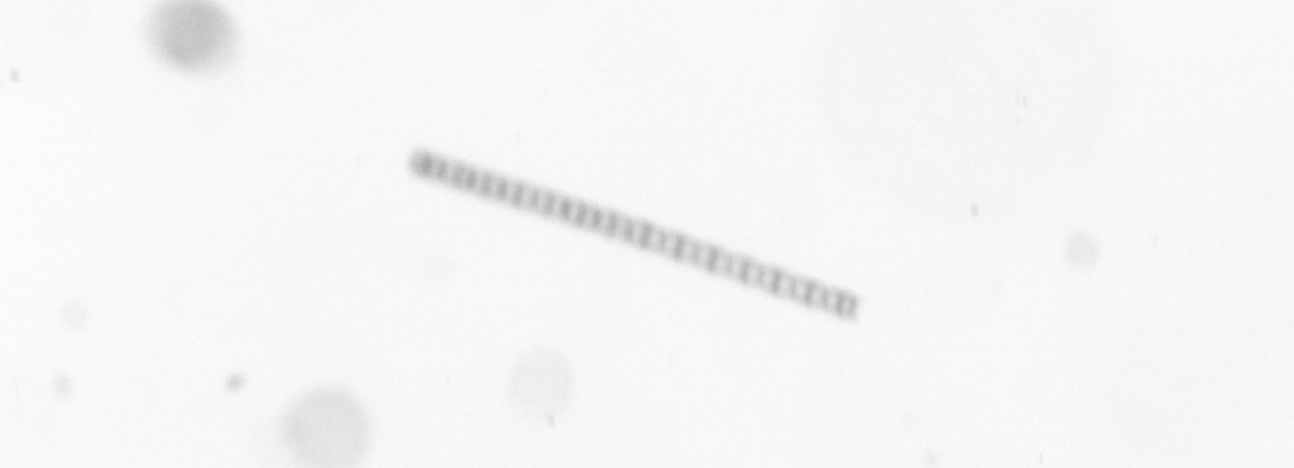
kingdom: Chromista
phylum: Ochrophyta
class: Bacillariophyceae
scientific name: Bacillariophyceae
